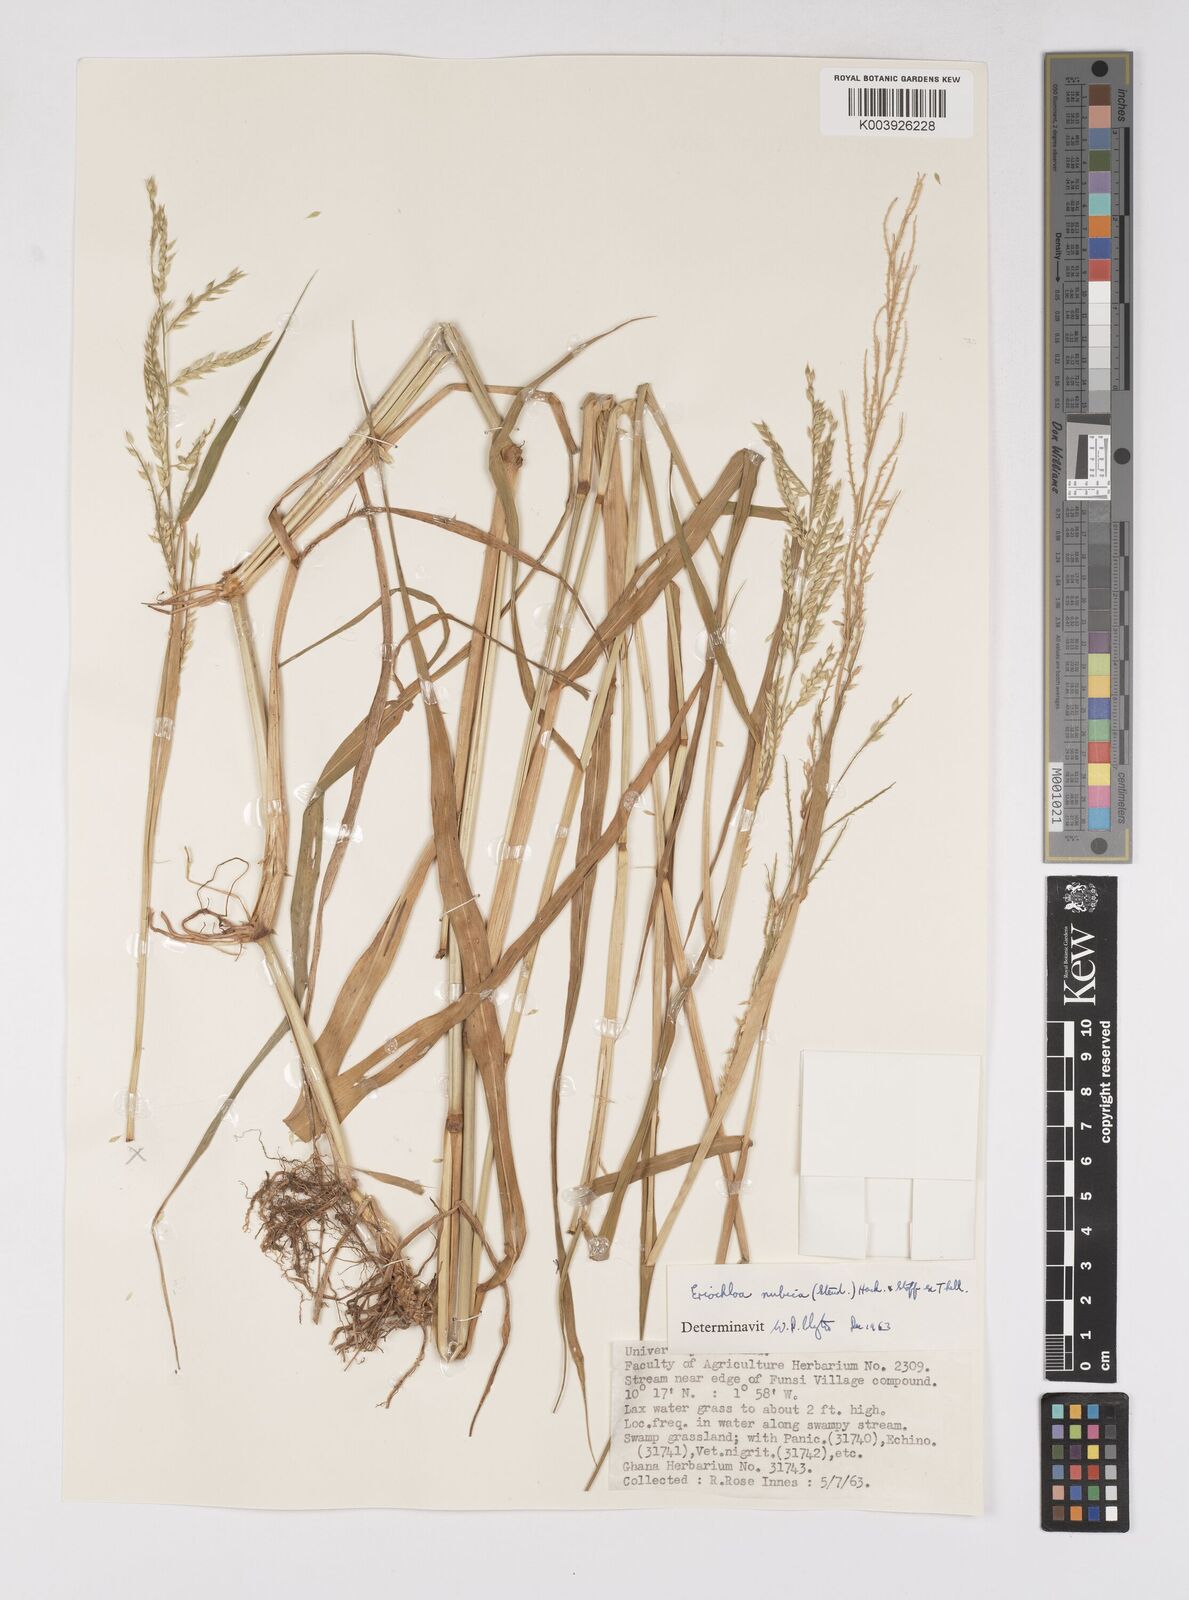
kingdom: Plantae
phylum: Tracheophyta
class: Liliopsida
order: Poales
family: Poaceae
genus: Eriochloa
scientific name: Eriochloa barbatus
